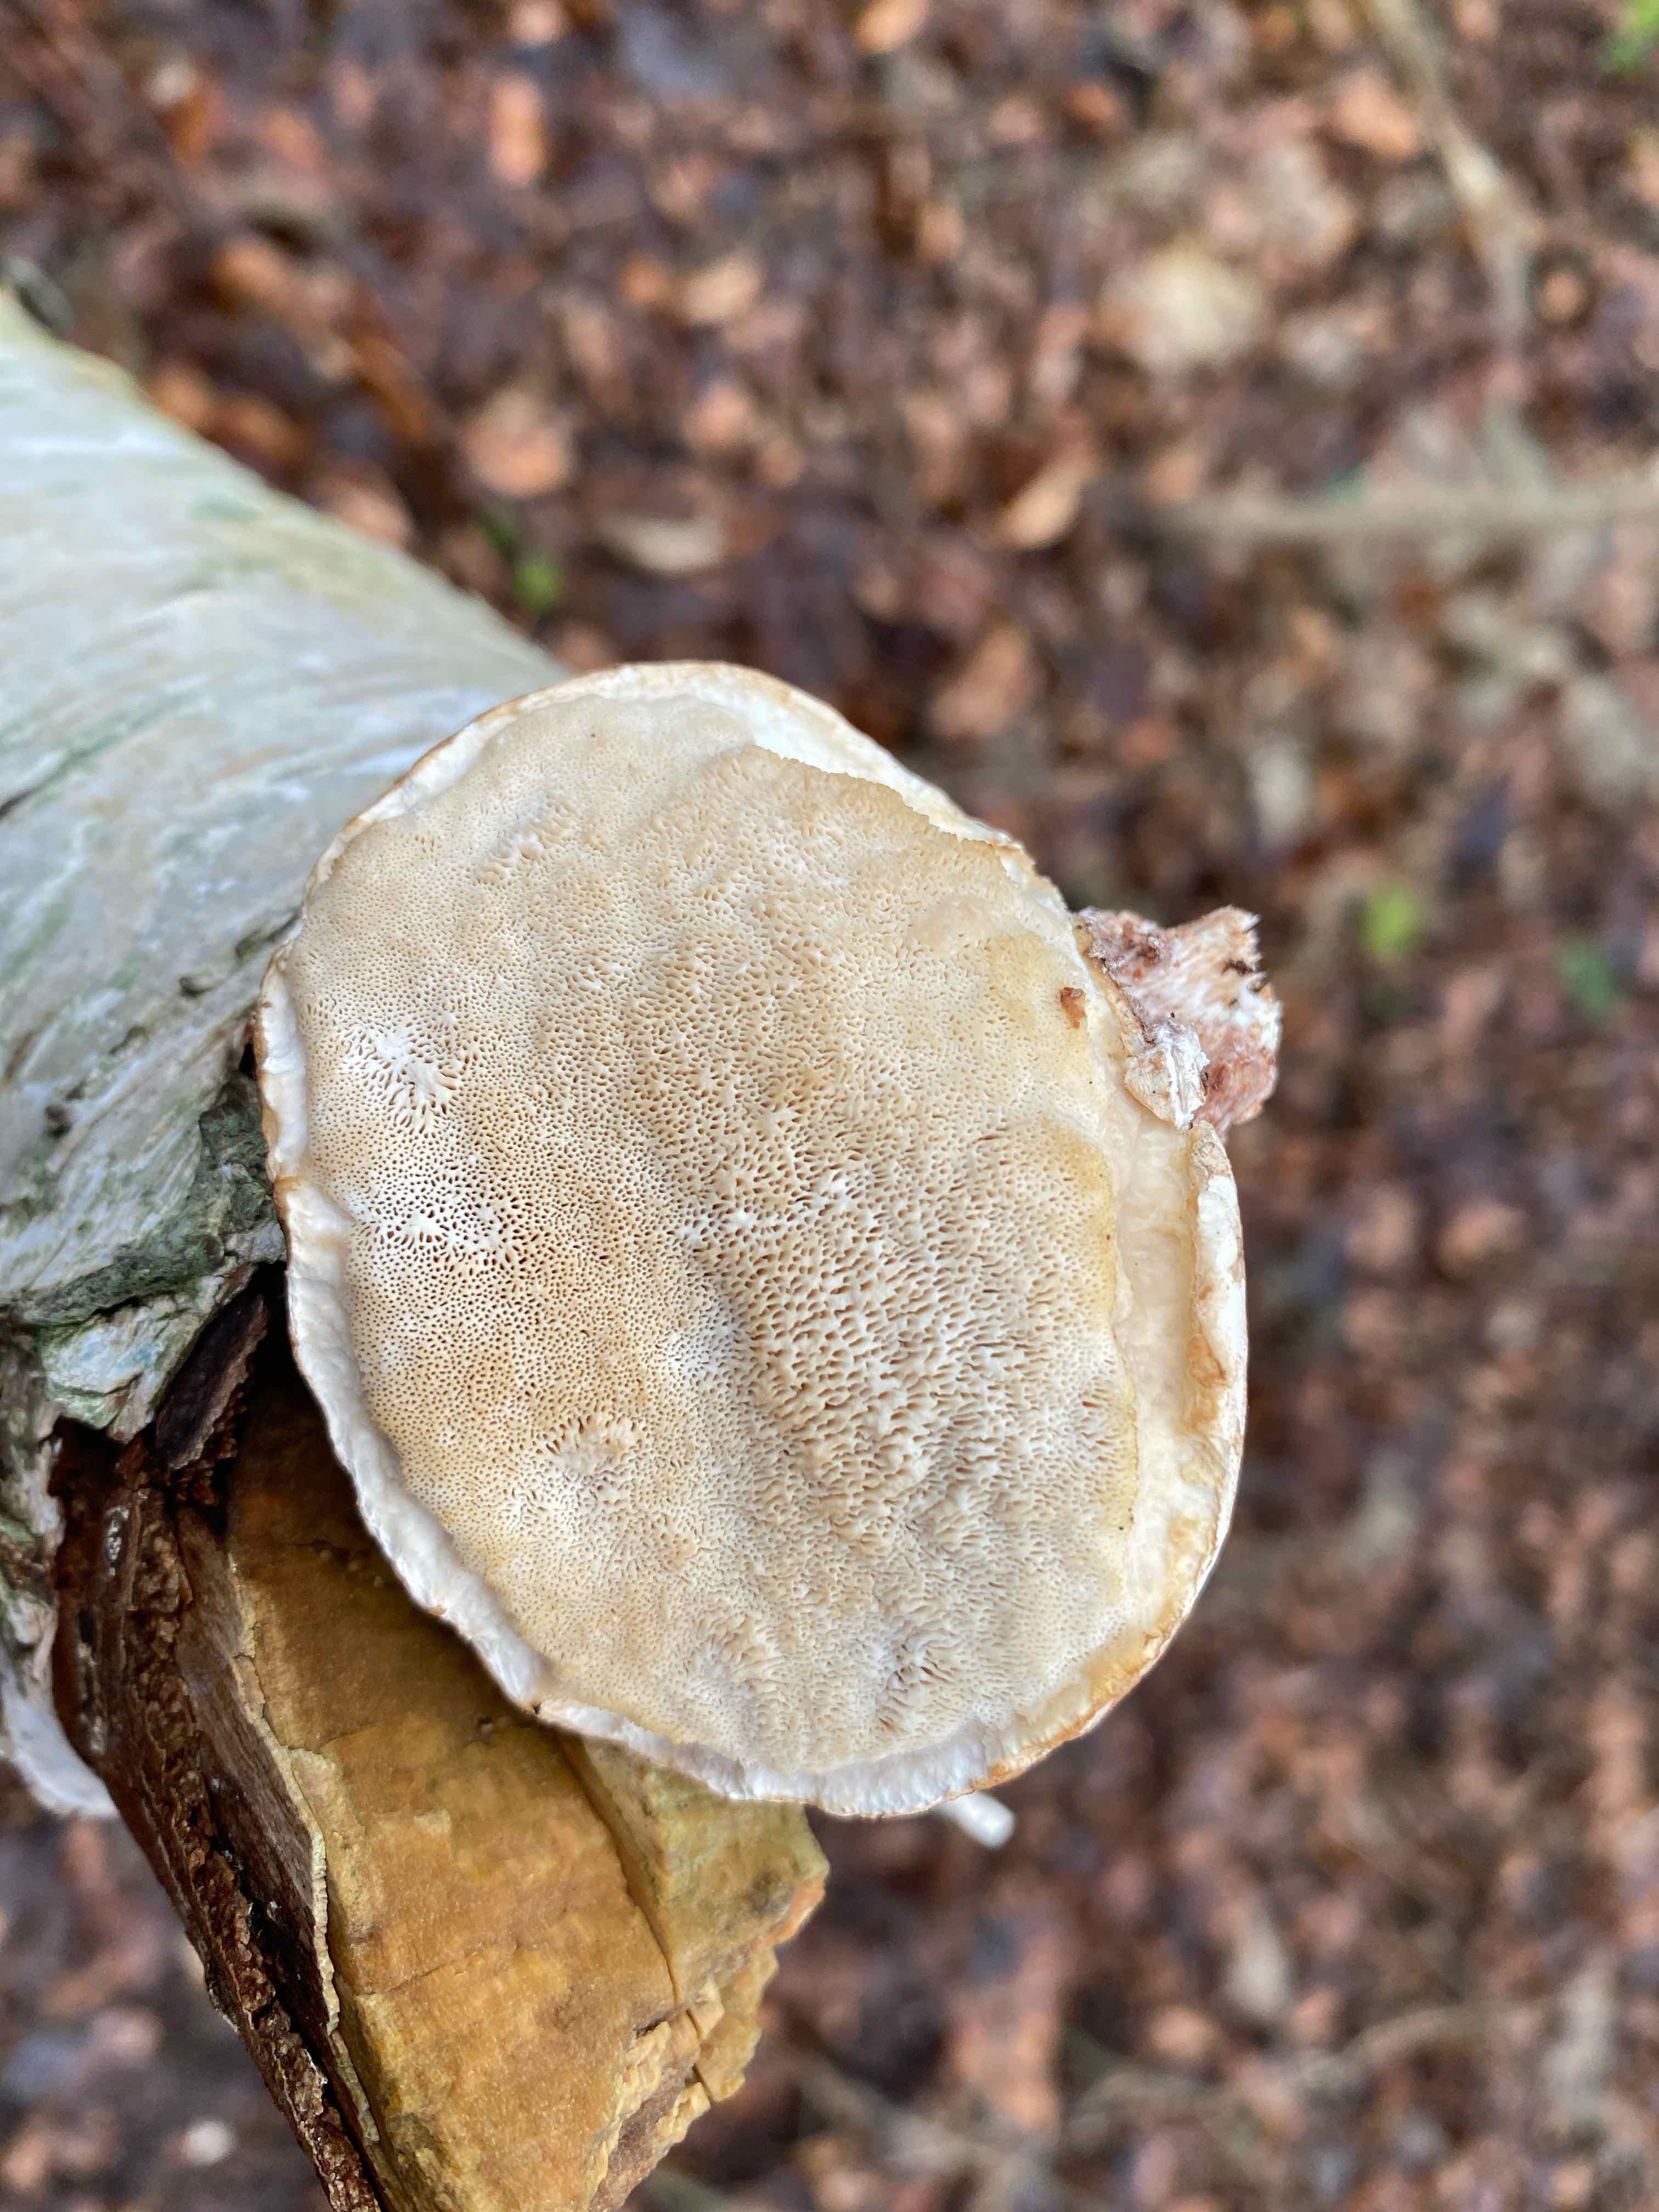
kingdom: Fungi
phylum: Basidiomycota
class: Agaricomycetes
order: Polyporales
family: Fomitopsidaceae
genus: Fomitopsis
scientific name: Fomitopsis betulina
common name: birkeporesvamp
